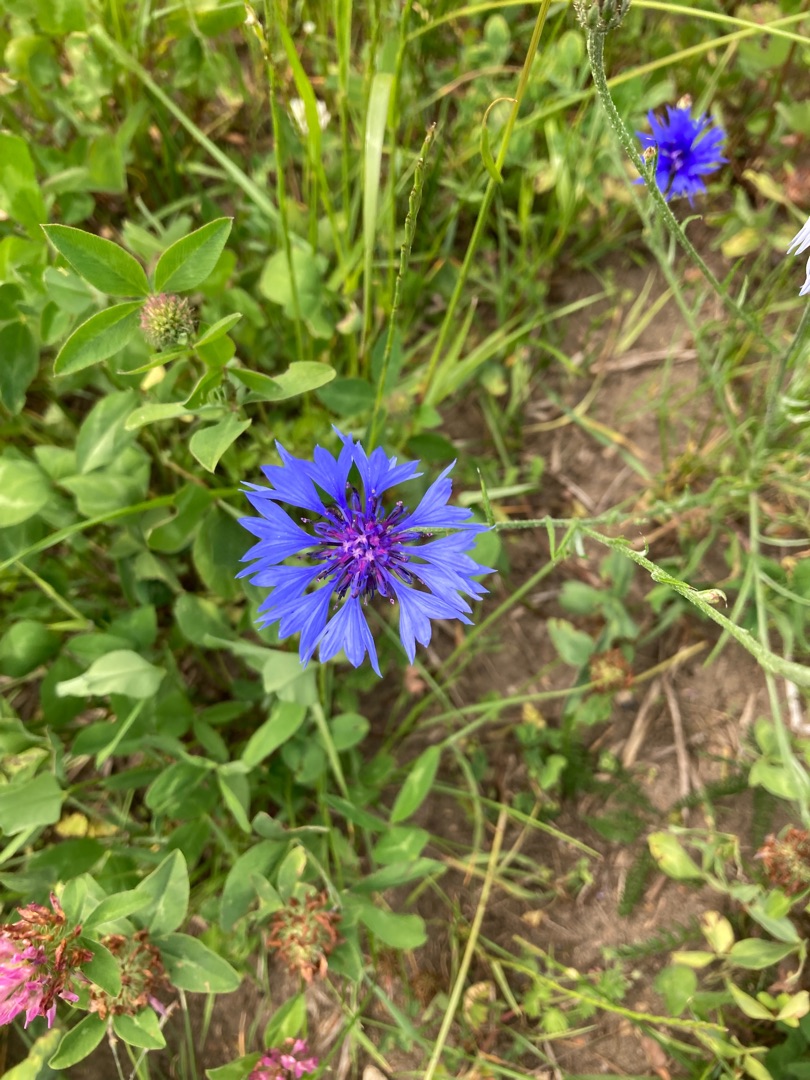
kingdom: Plantae
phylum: Tracheophyta
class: Magnoliopsida
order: Asterales
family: Asteraceae
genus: Centaurea
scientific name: Centaurea cyanus
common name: Kornblomst
